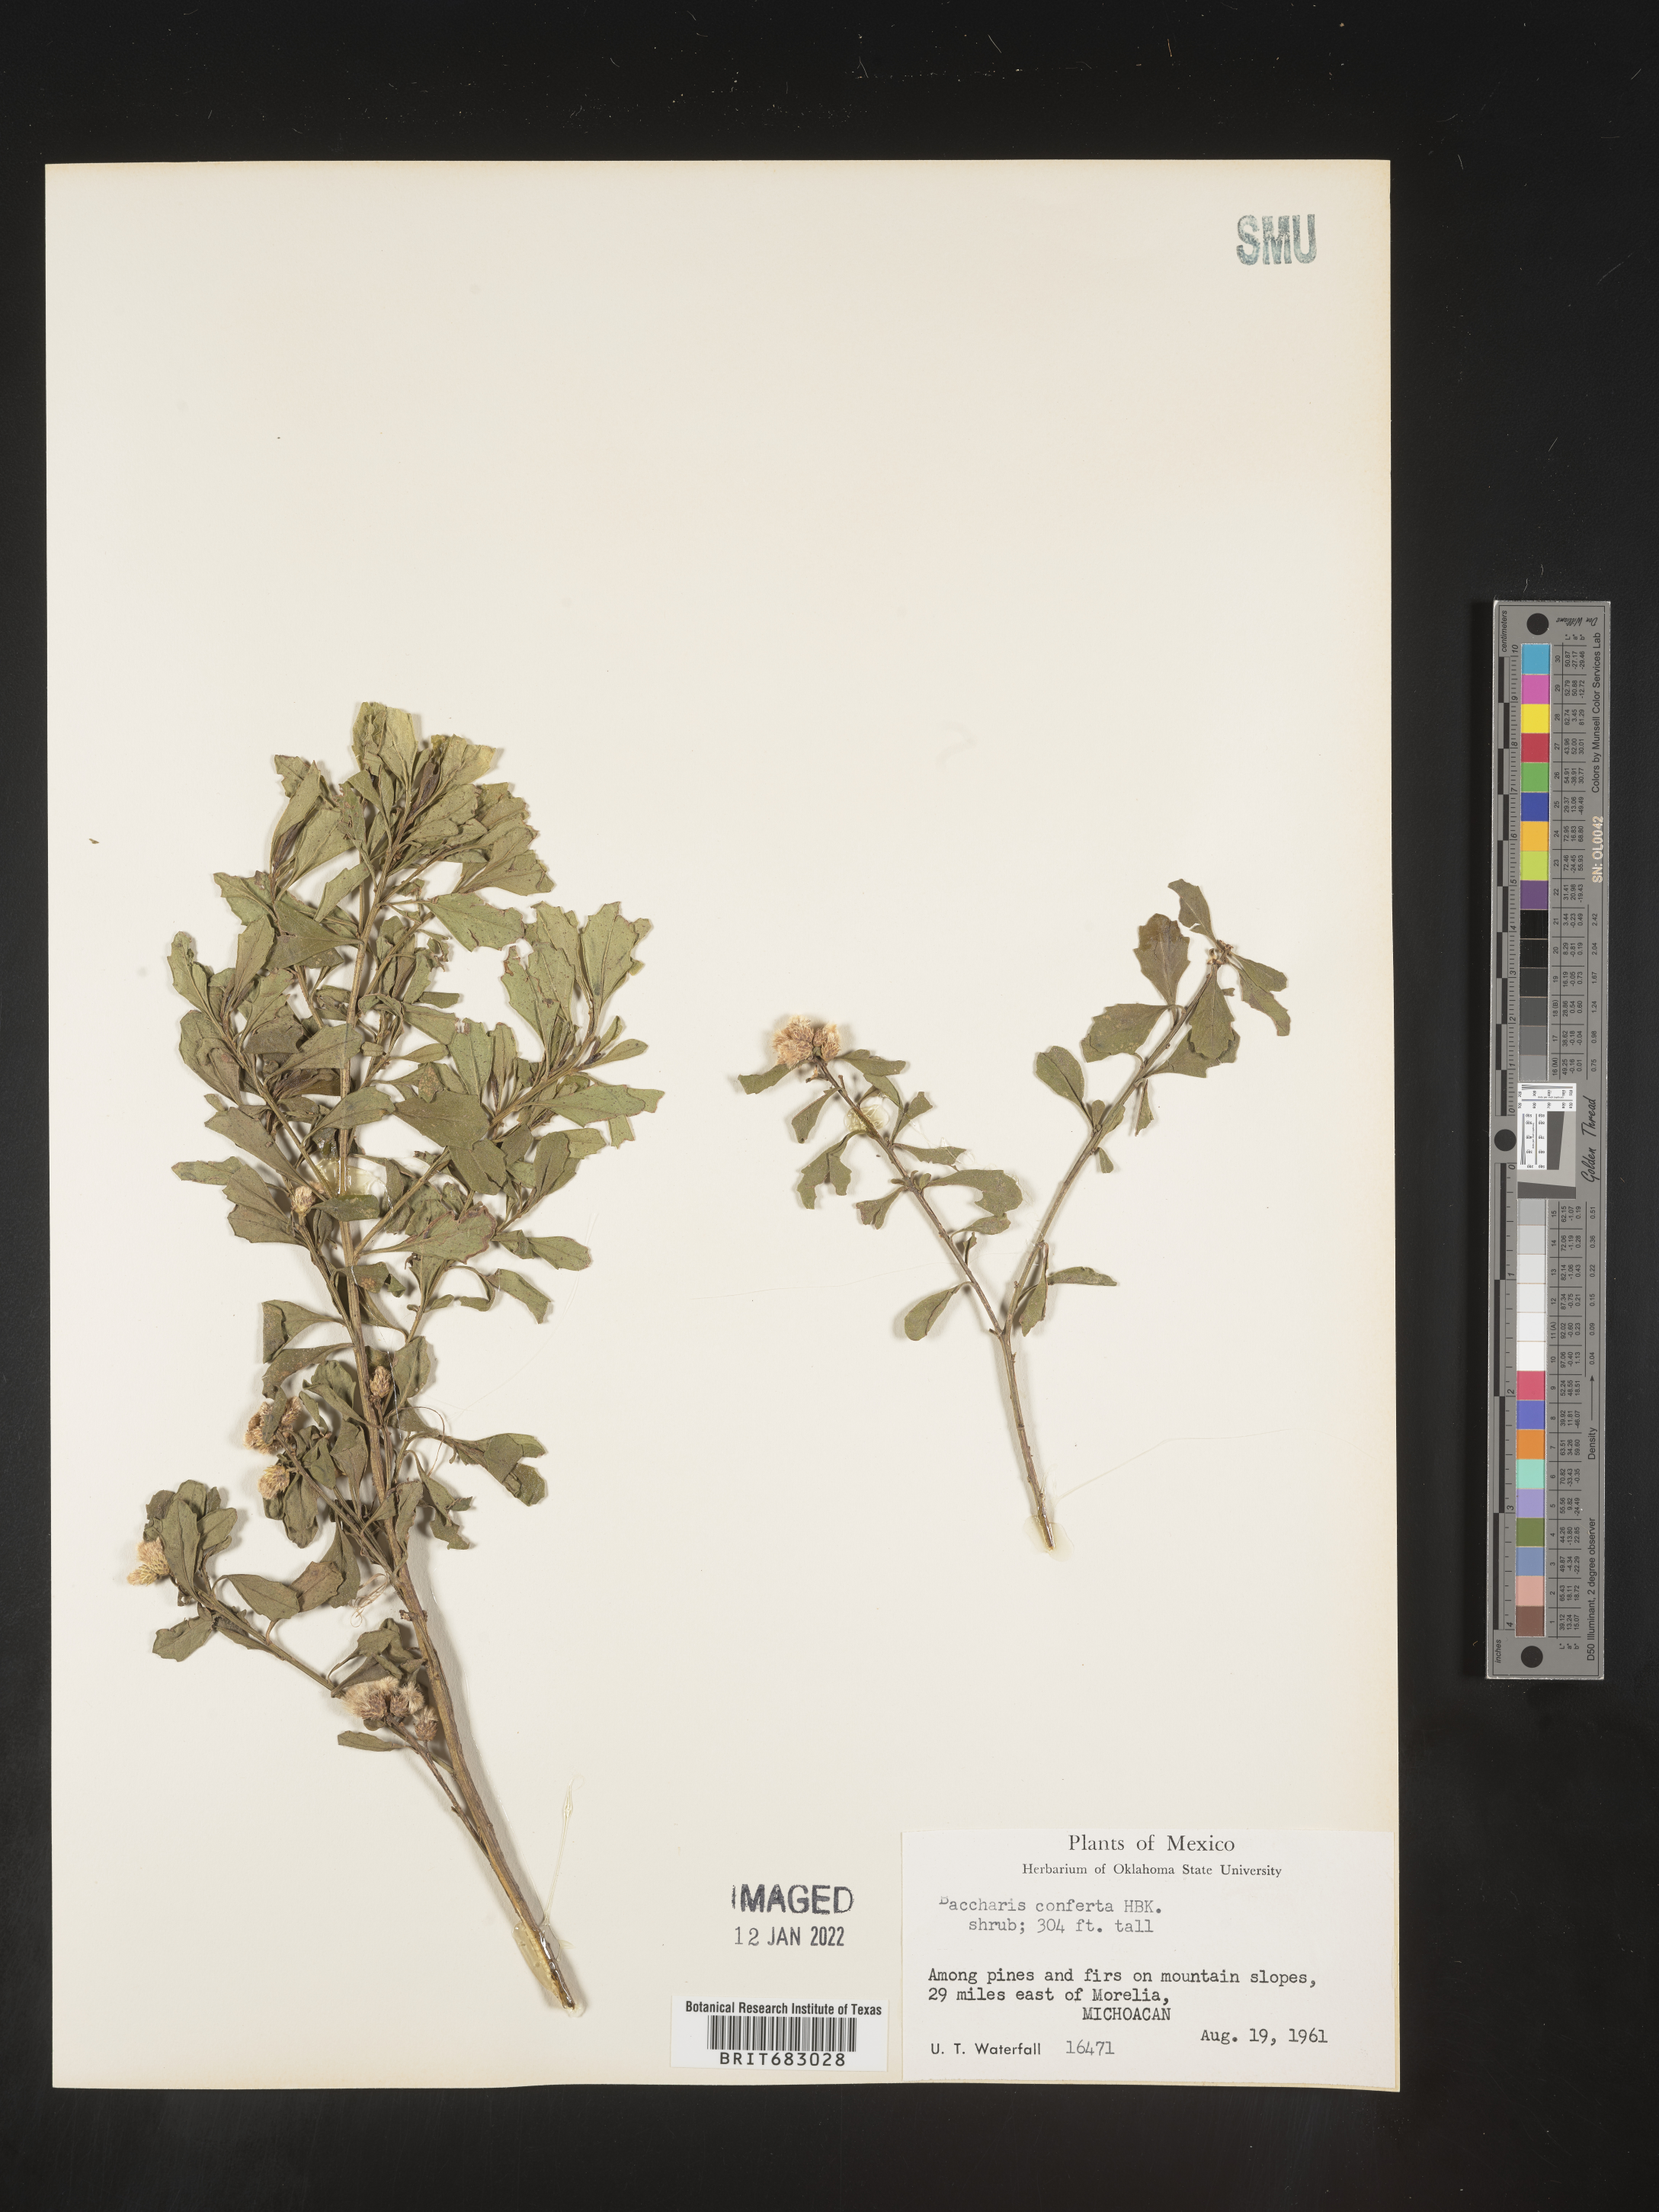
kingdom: Plantae
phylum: Tracheophyta
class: Magnoliopsida
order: Asterales
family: Asteraceae
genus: Baccharis
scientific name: Baccharis conferta
